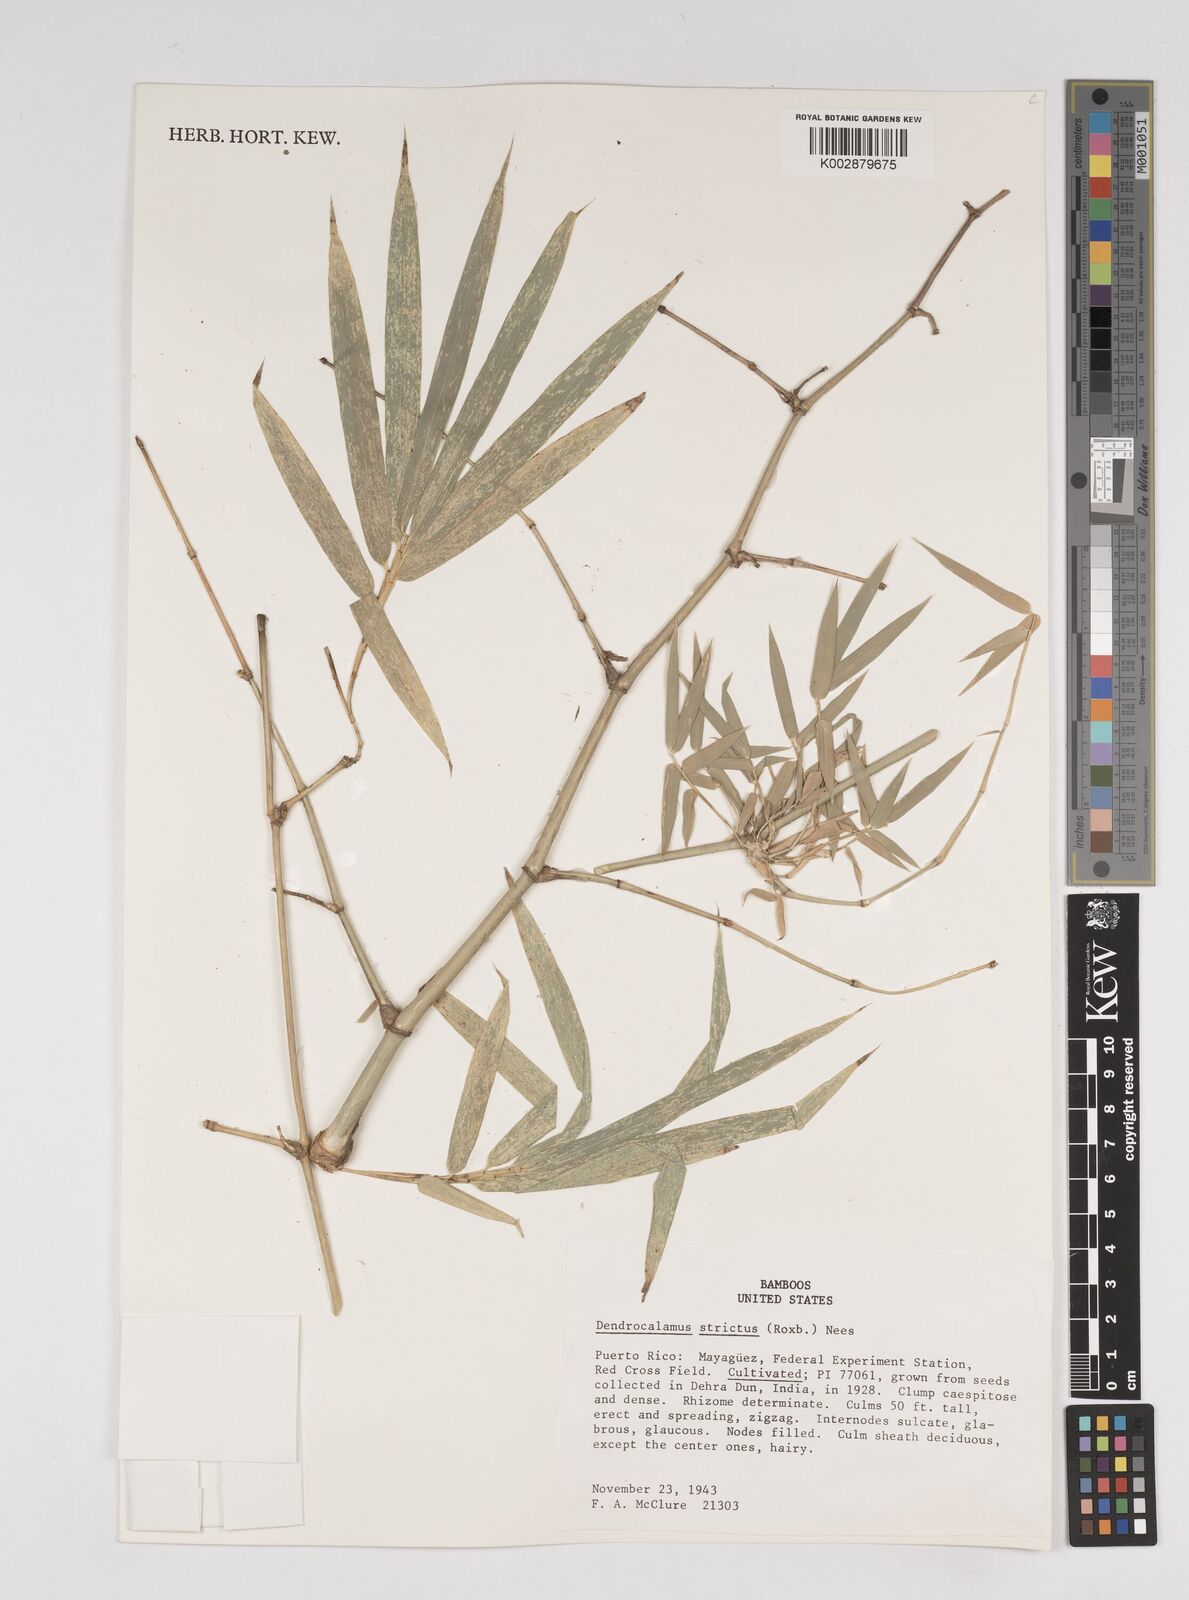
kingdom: Plantae
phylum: Tracheophyta
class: Liliopsida
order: Poales
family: Poaceae
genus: Dendrocalamus
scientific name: Dendrocalamus strictus
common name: Male bamboo
